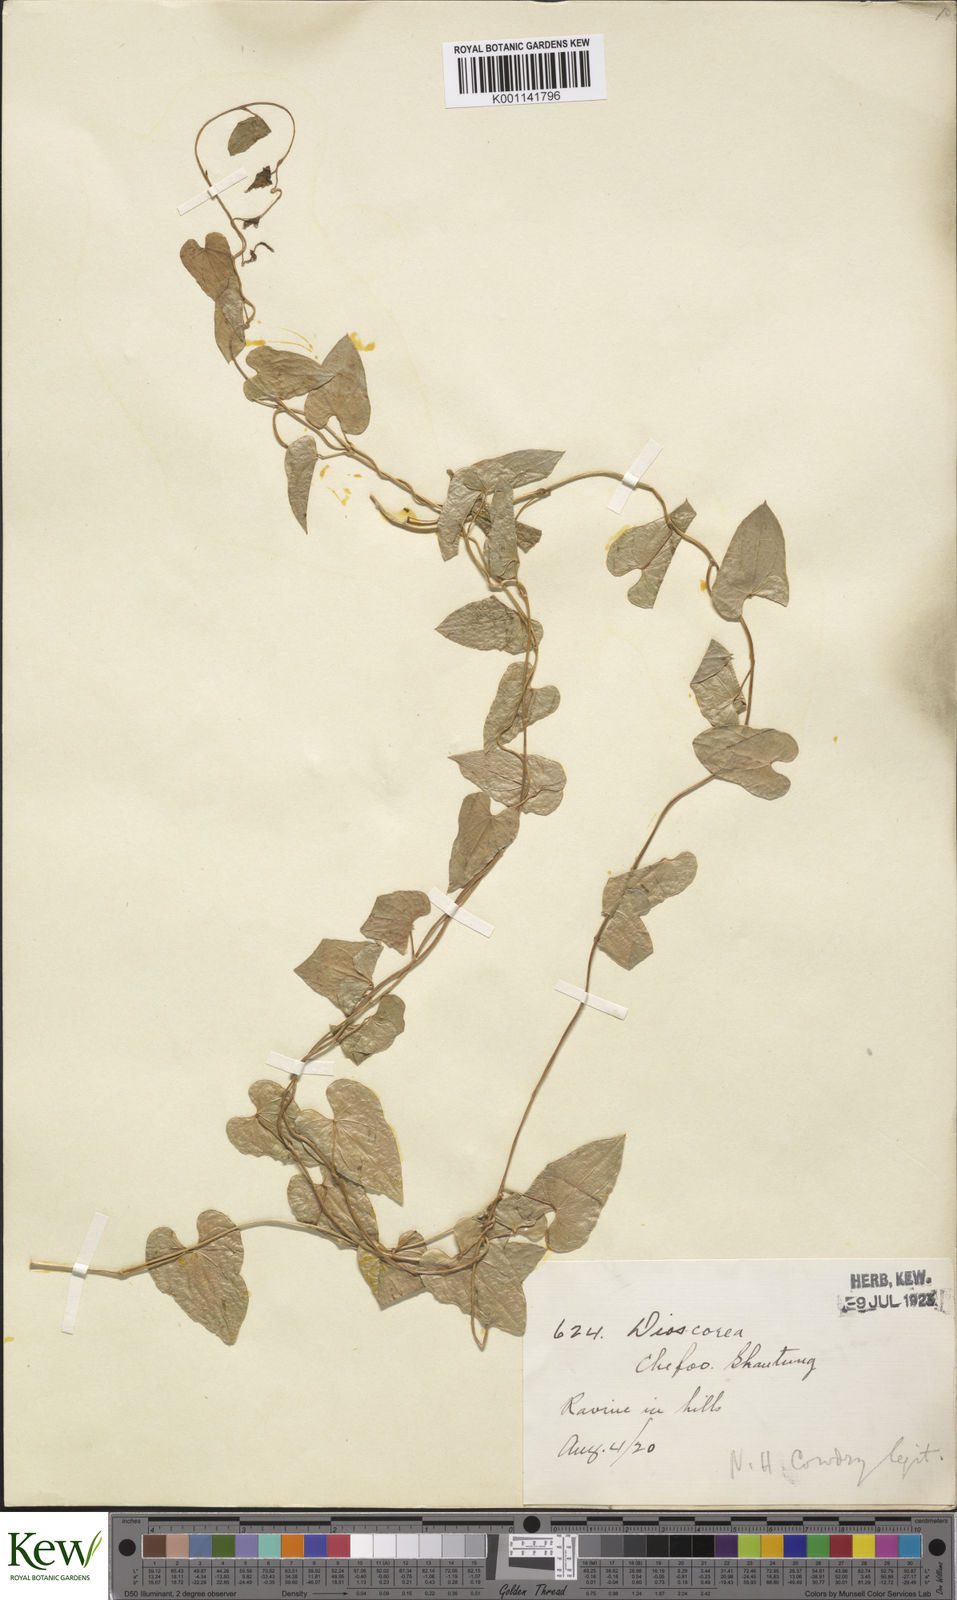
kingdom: Plantae
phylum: Tracheophyta
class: Liliopsida
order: Dioscoreales
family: Dioscoreaceae
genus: Dioscorea
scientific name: Dioscorea oppositifolia
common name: Chinese yam
